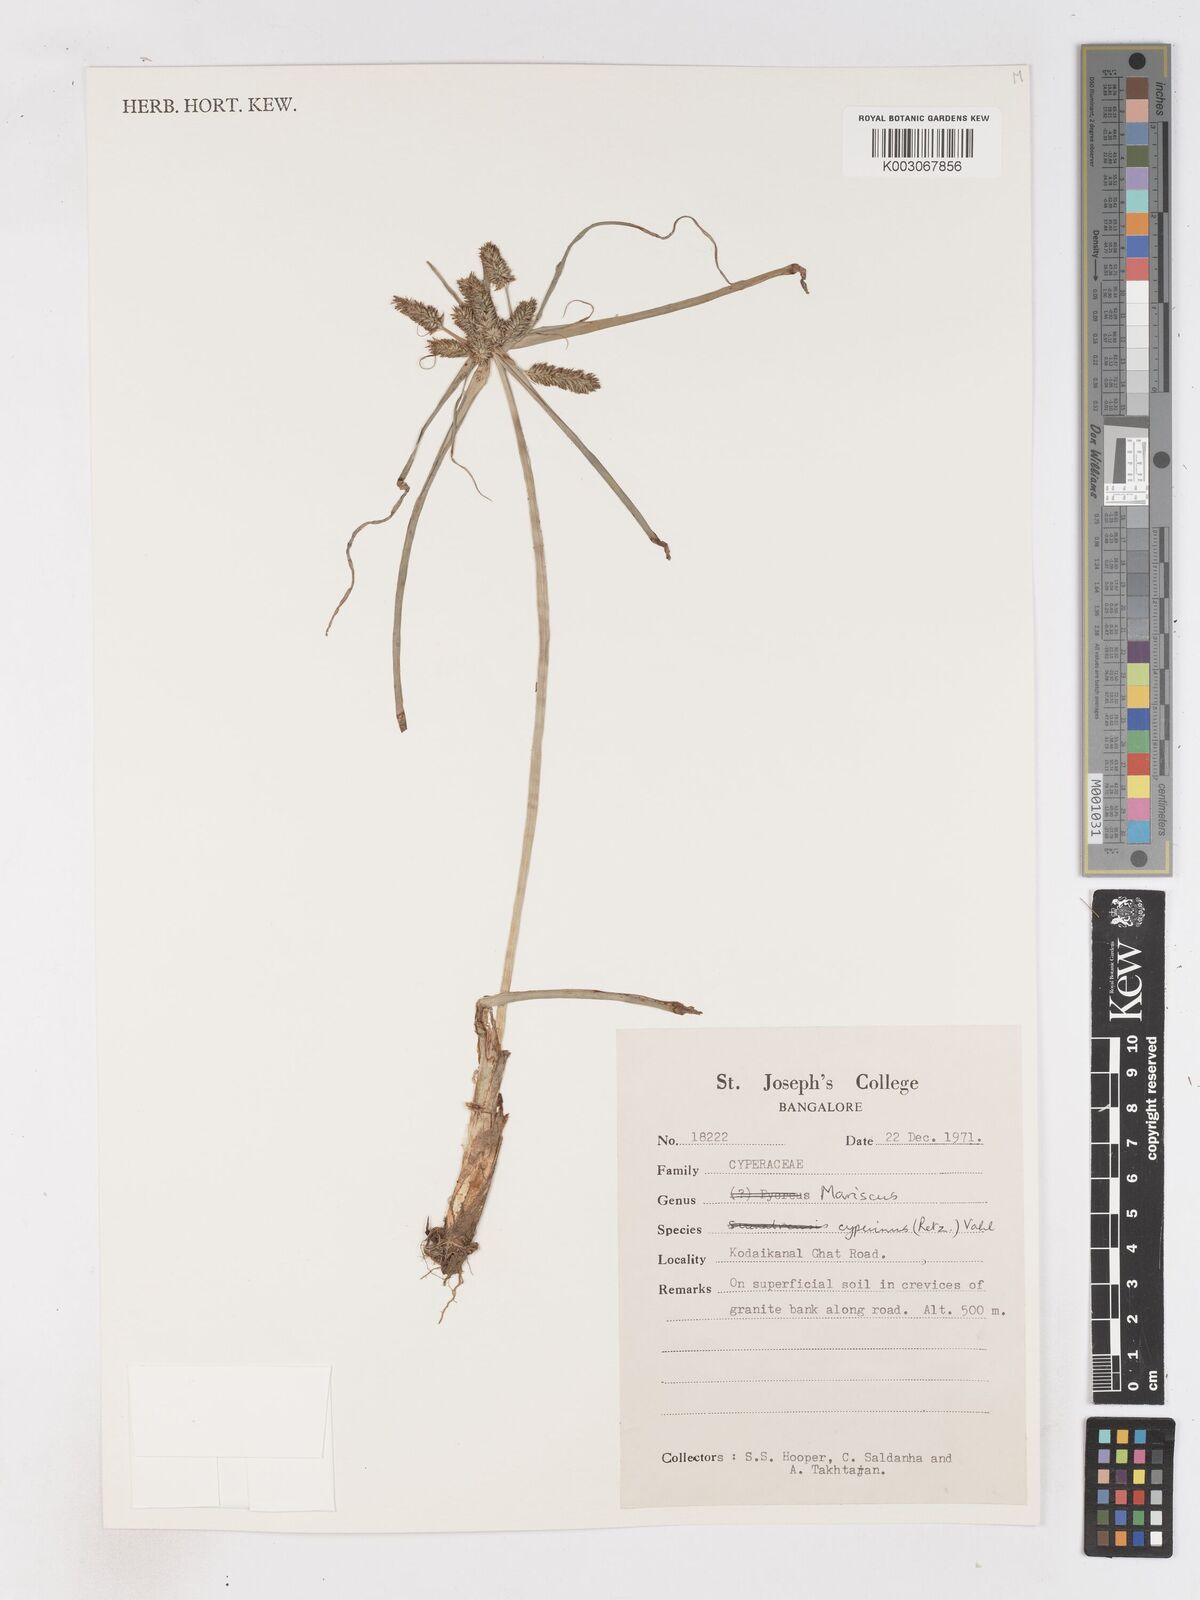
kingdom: Plantae
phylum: Tracheophyta
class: Liliopsida
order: Poales
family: Cyperaceae
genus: Cyperus
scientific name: Cyperus cyperinus
